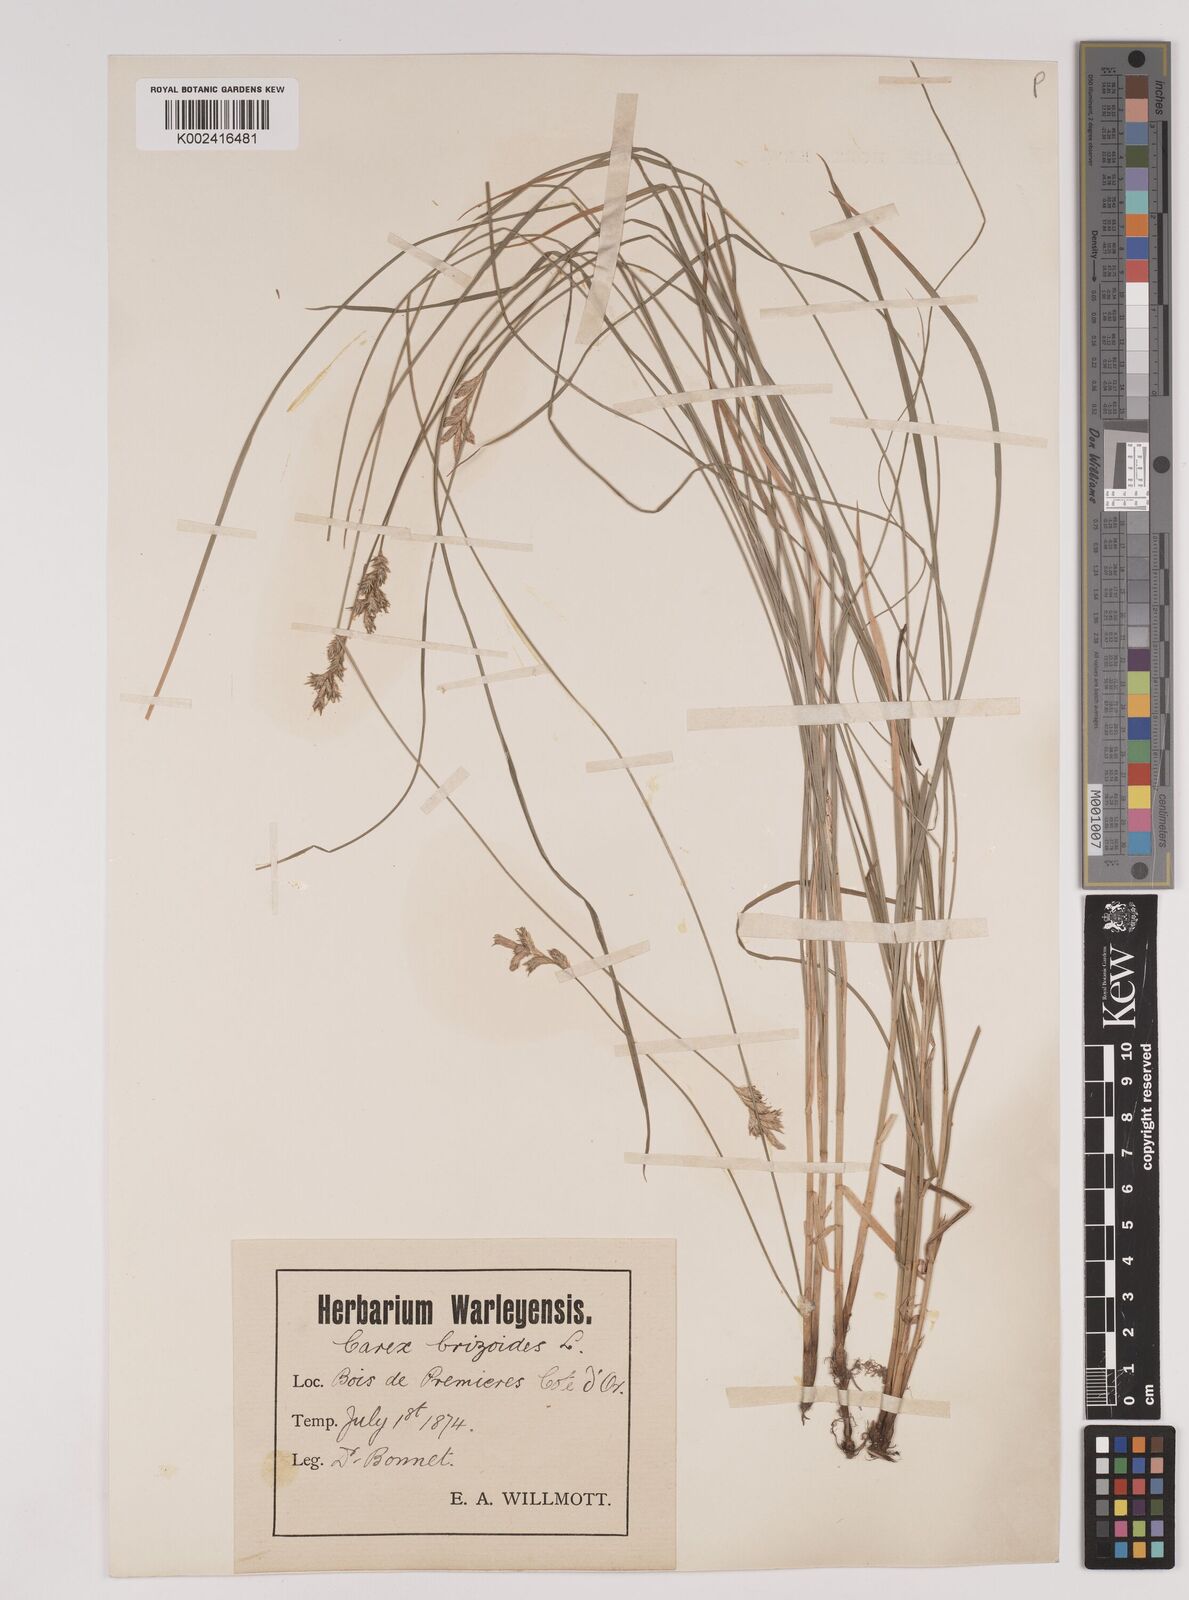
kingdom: Plantae
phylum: Tracheophyta
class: Liliopsida
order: Poales
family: Cyperaceae
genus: Carex
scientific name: Carex brizoides
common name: Quaking-grass sedge
